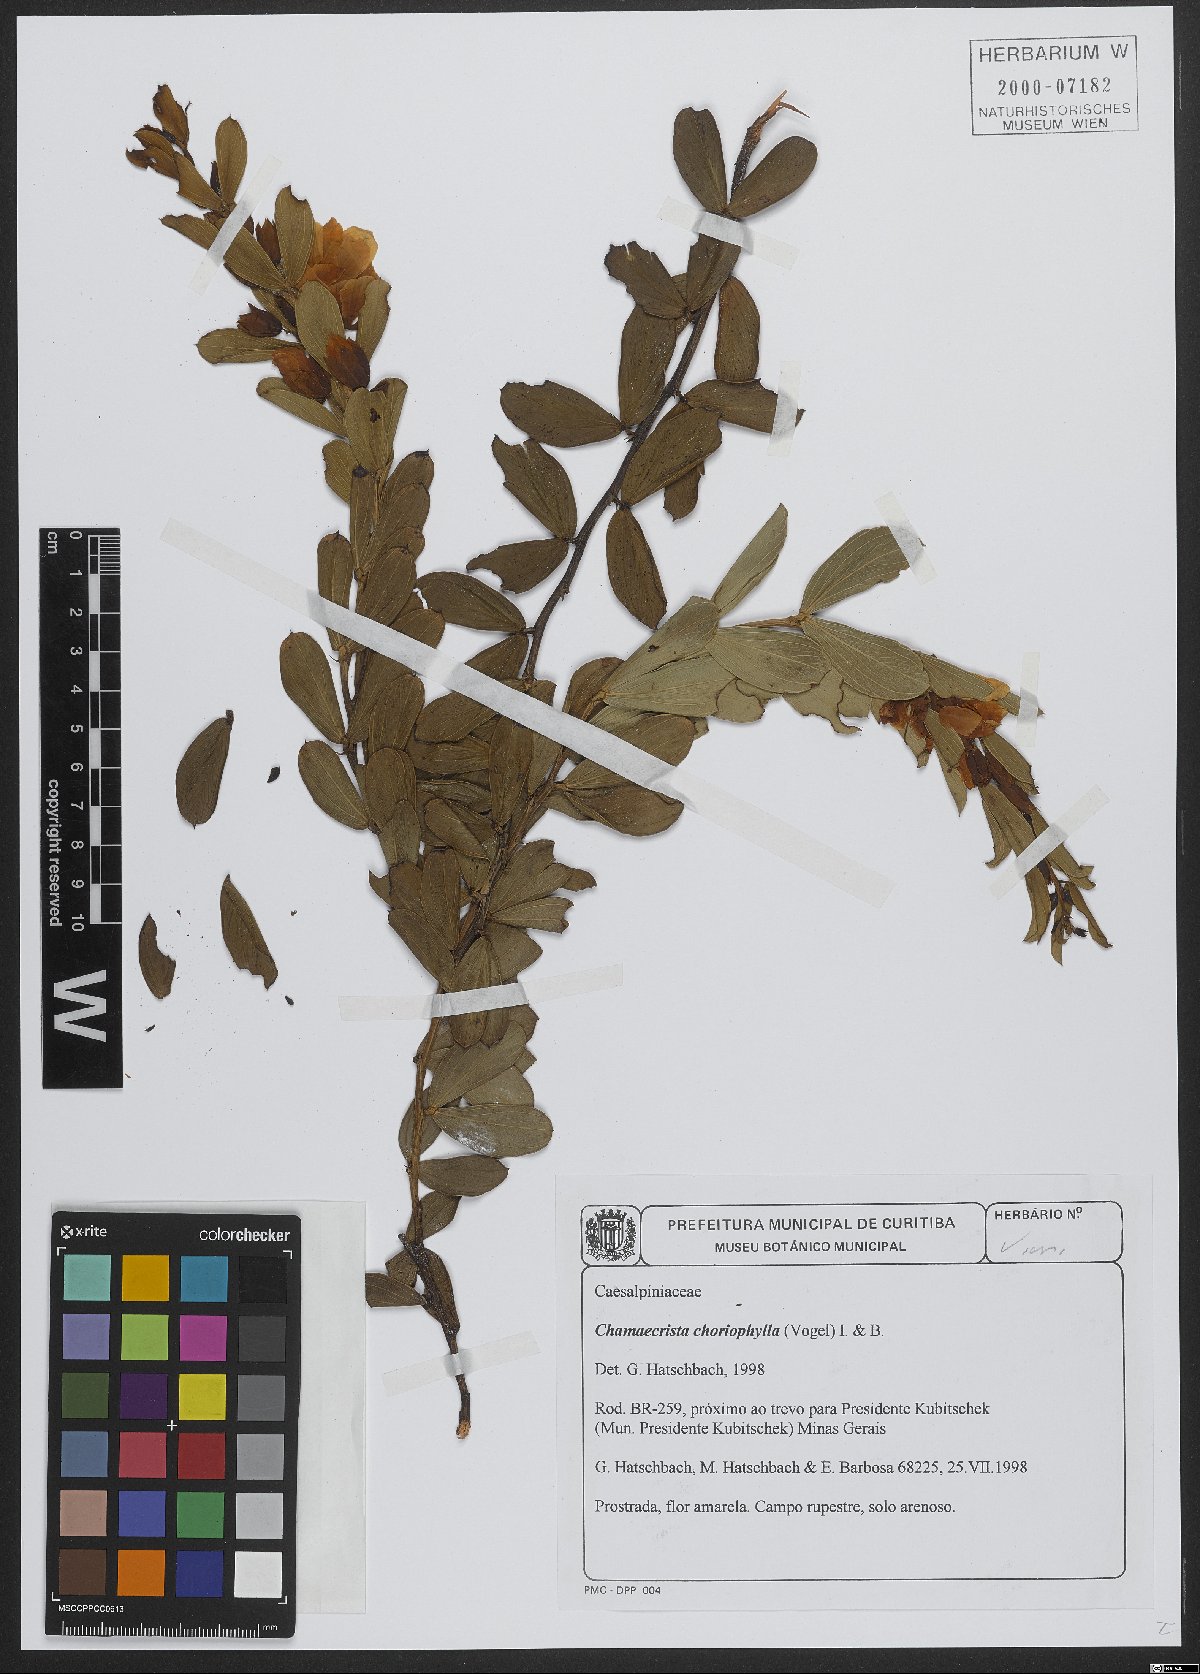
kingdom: Plantae
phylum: Tracheophyta
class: Magnoliopsida
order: Fabales
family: Fabaceae
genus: Chamaecrista
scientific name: Chamaecrista choriophylla
